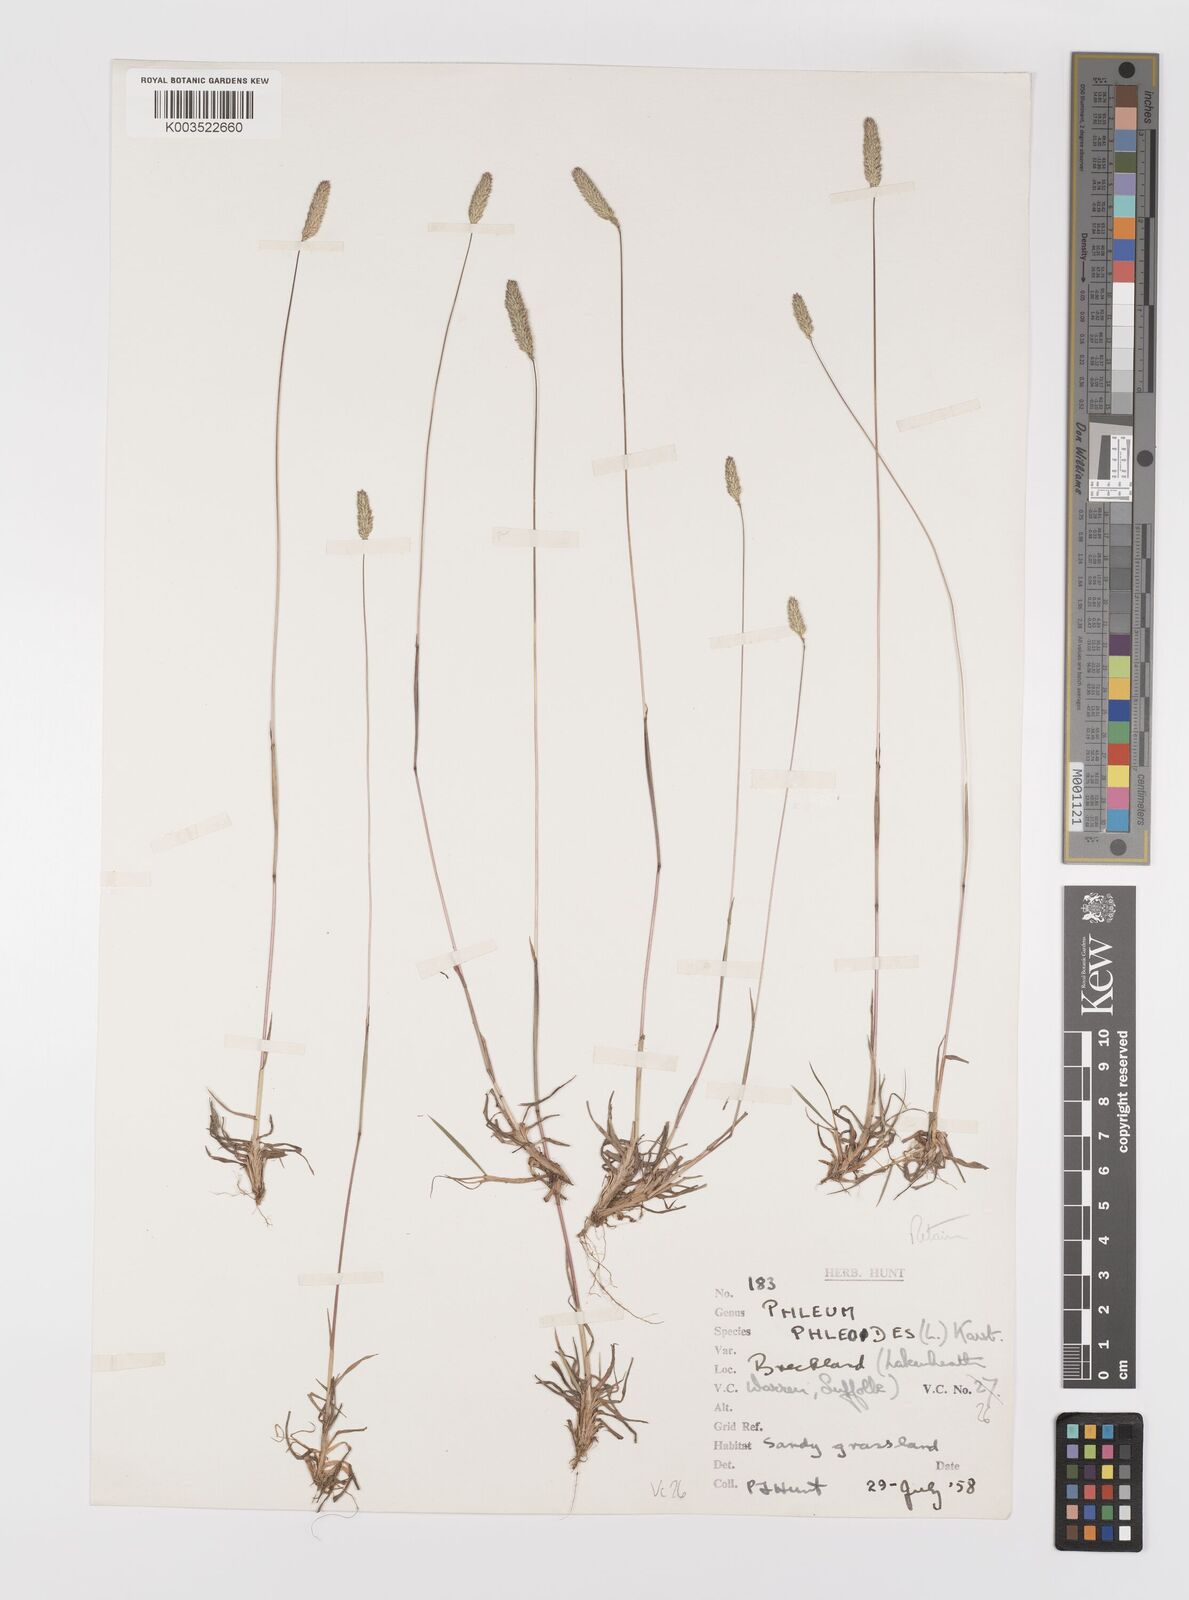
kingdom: Plantae
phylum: Tracheophyta
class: Liliopsida
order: Poales
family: Poaceae
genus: Phleum
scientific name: Phleum phleoides
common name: Purple-stem cat's-tail
